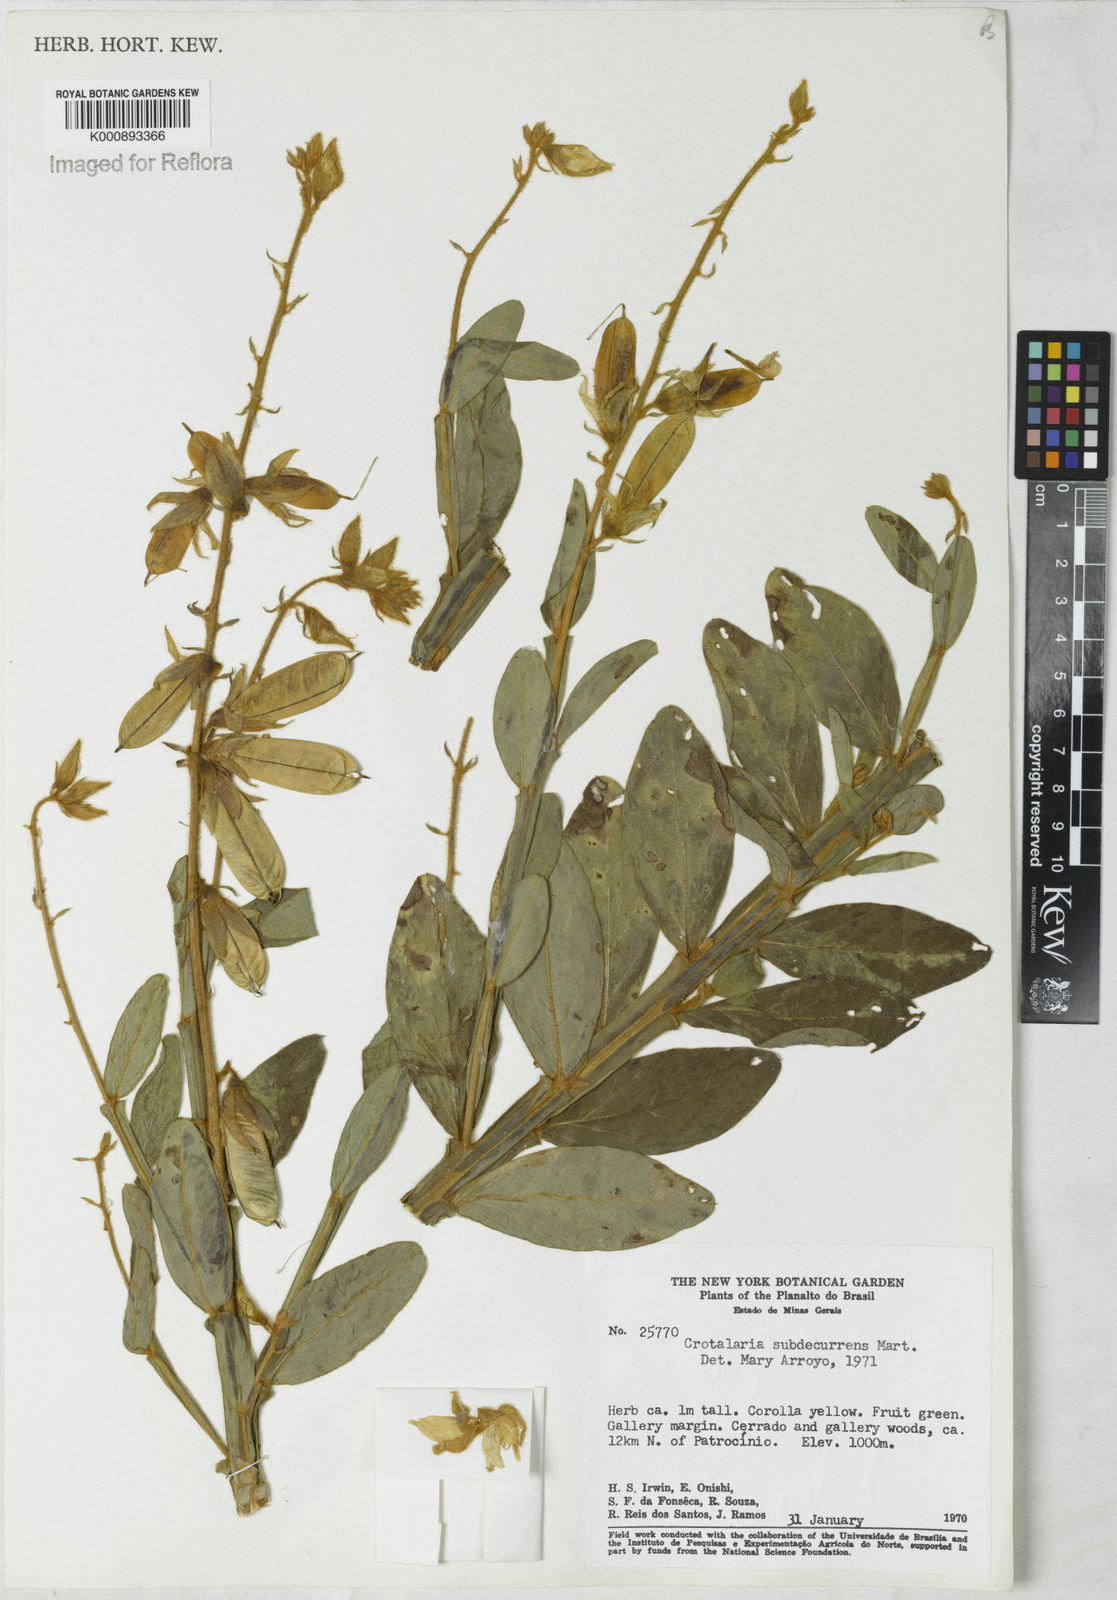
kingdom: Plantae
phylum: Tracheophyta
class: Magnoliopsida
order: Fabales
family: Fabaceae
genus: Crotalaria
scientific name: Crotalaria
